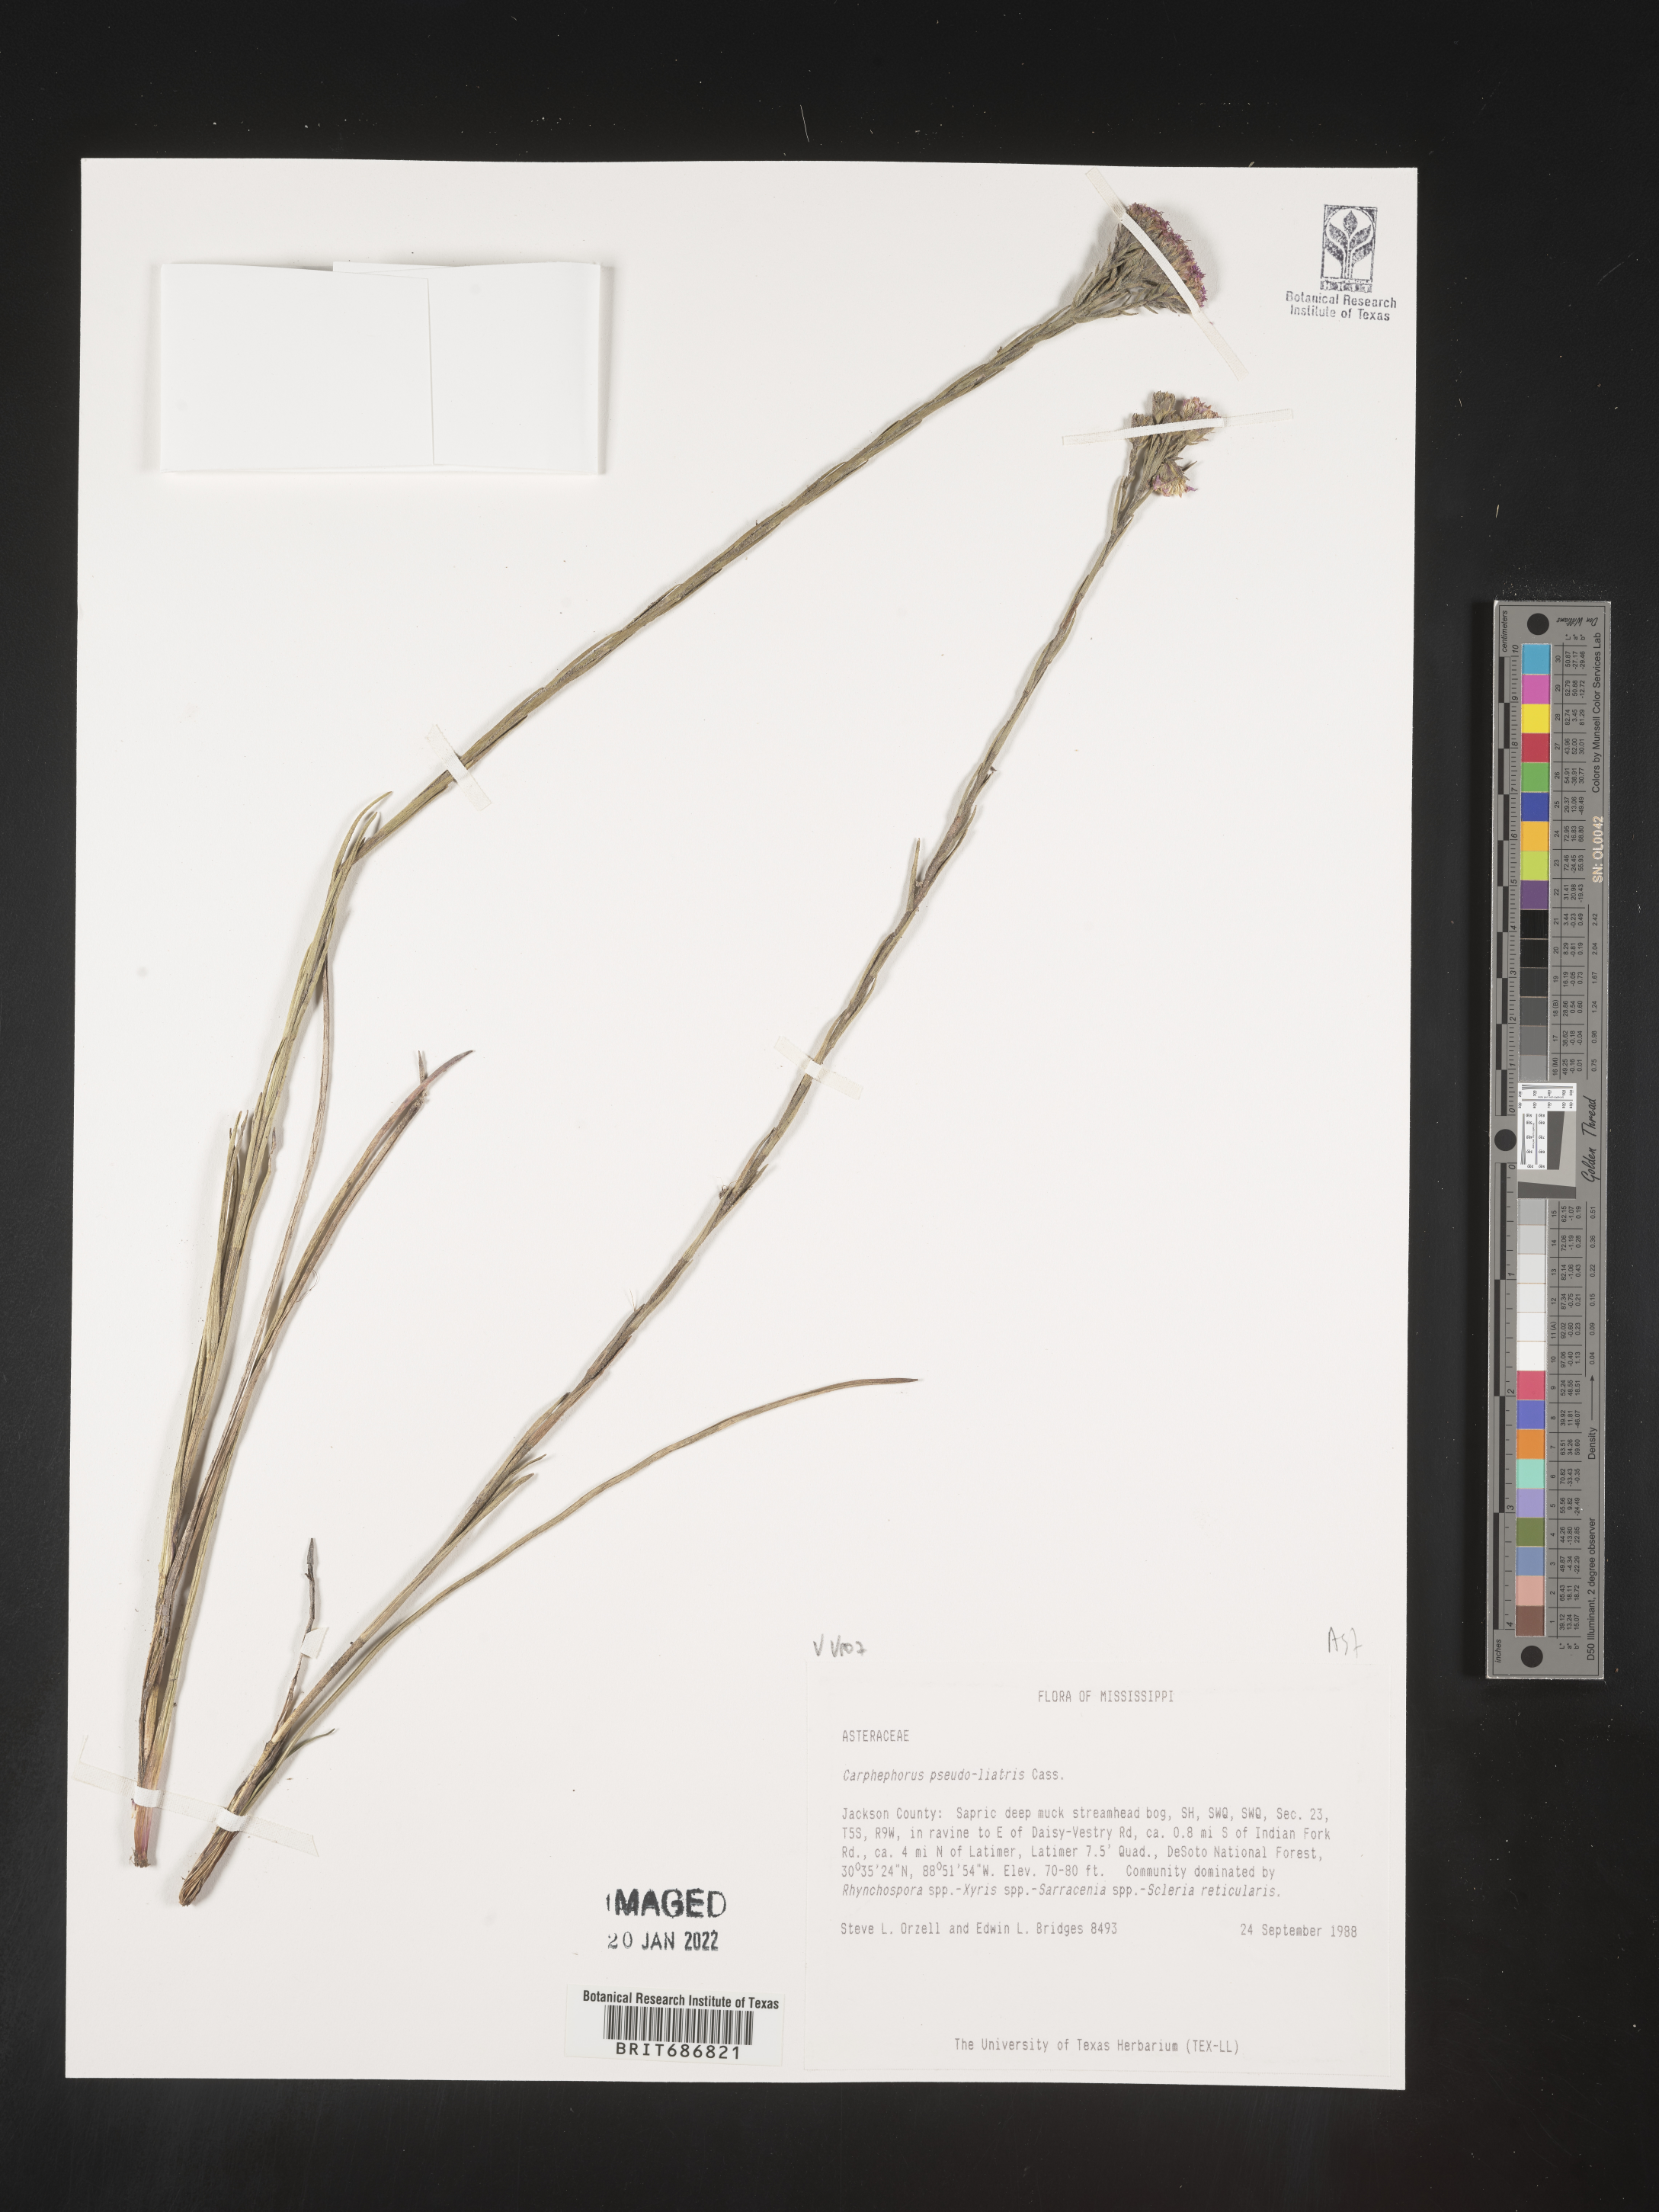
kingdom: Plantae
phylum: Tracheophyta
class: Magnoliopsida
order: Asterales
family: Asteraceae
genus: Carphephorus
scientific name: Carphephorus pseudoliatris
